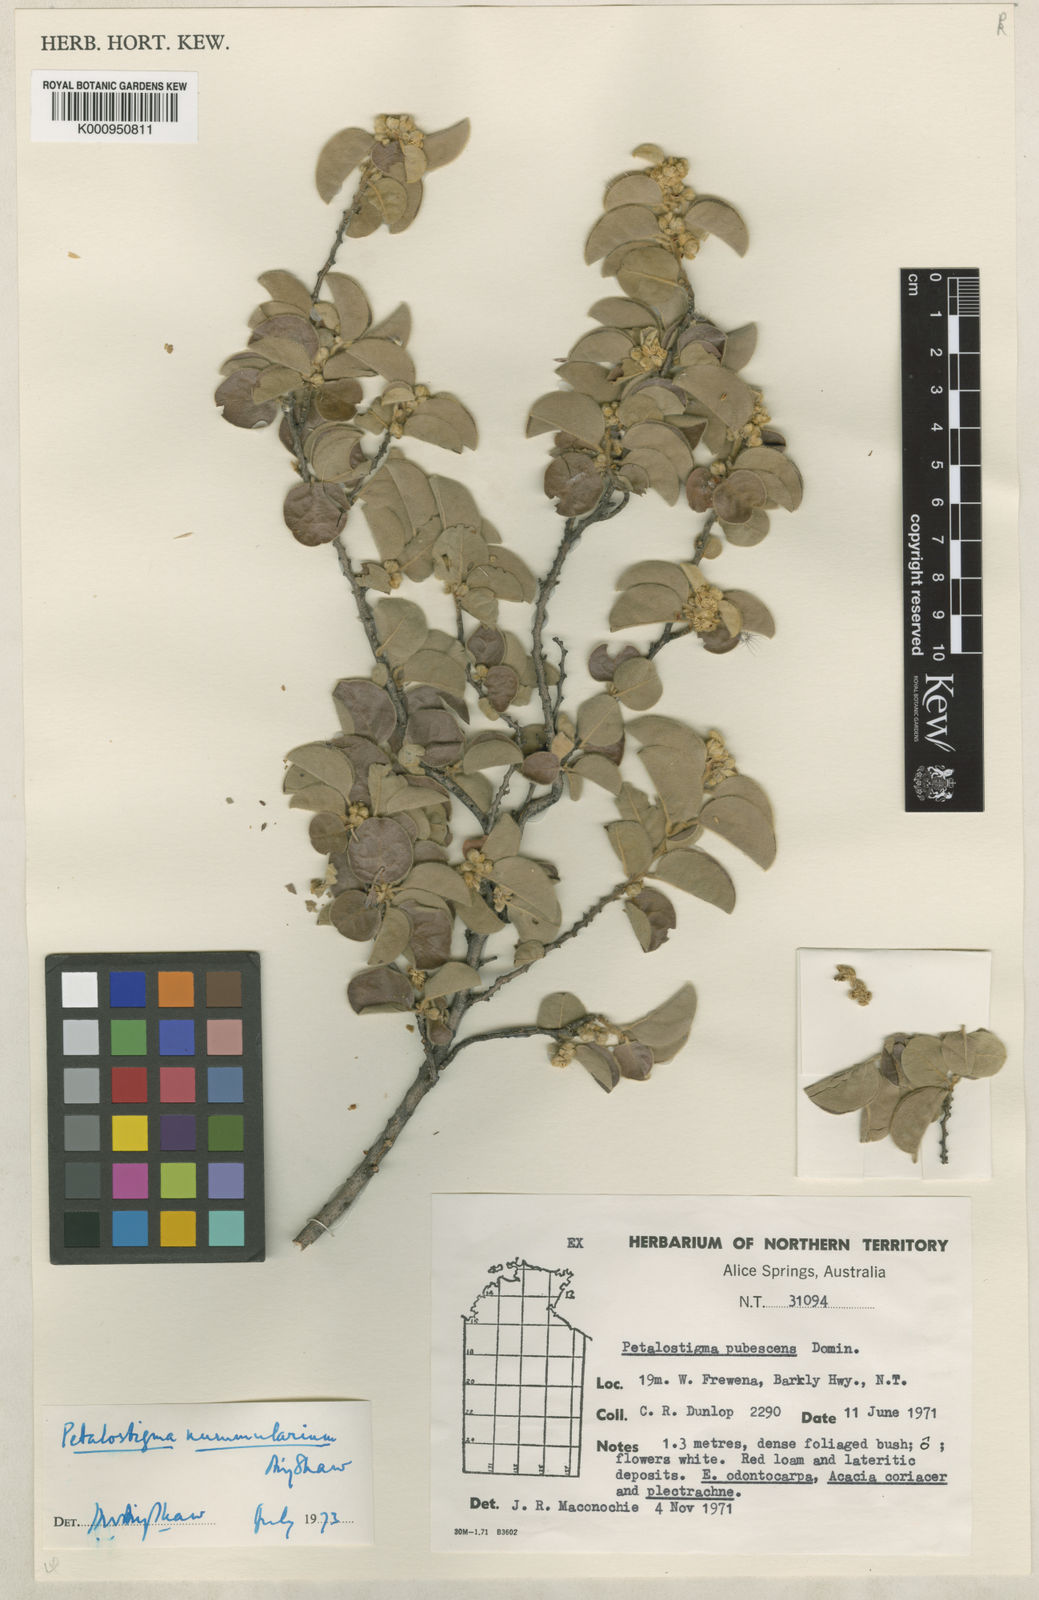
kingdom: Plantae
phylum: Tracheophyta
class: Magnoliopsida
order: Malpighiales
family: Picrodendraceae
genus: Petalostigma
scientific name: Petalostigma
